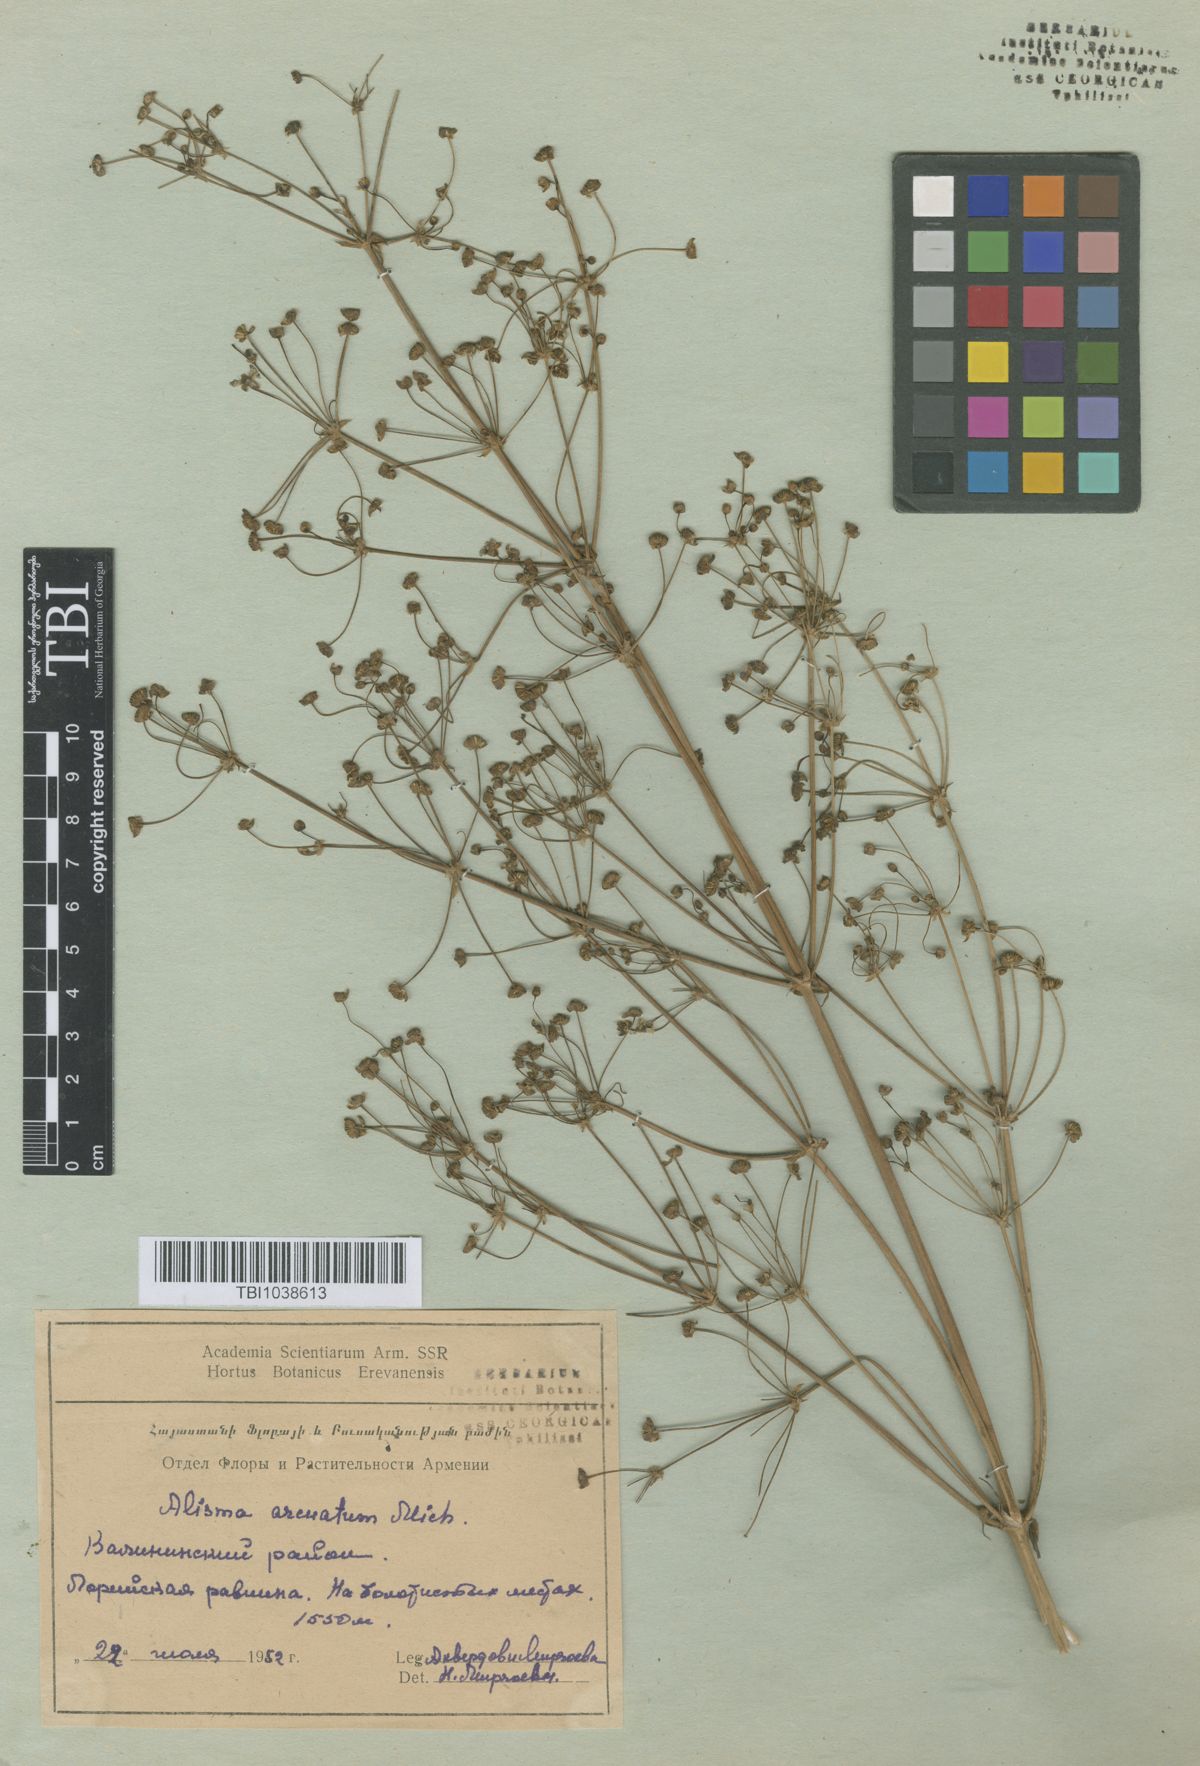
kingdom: Plantae
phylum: Tracheophyta
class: Liliopsida
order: Alismatales
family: Alismataceae
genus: Alisma
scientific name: Alisma gramineum
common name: Ribbon-leaved water-plantain
